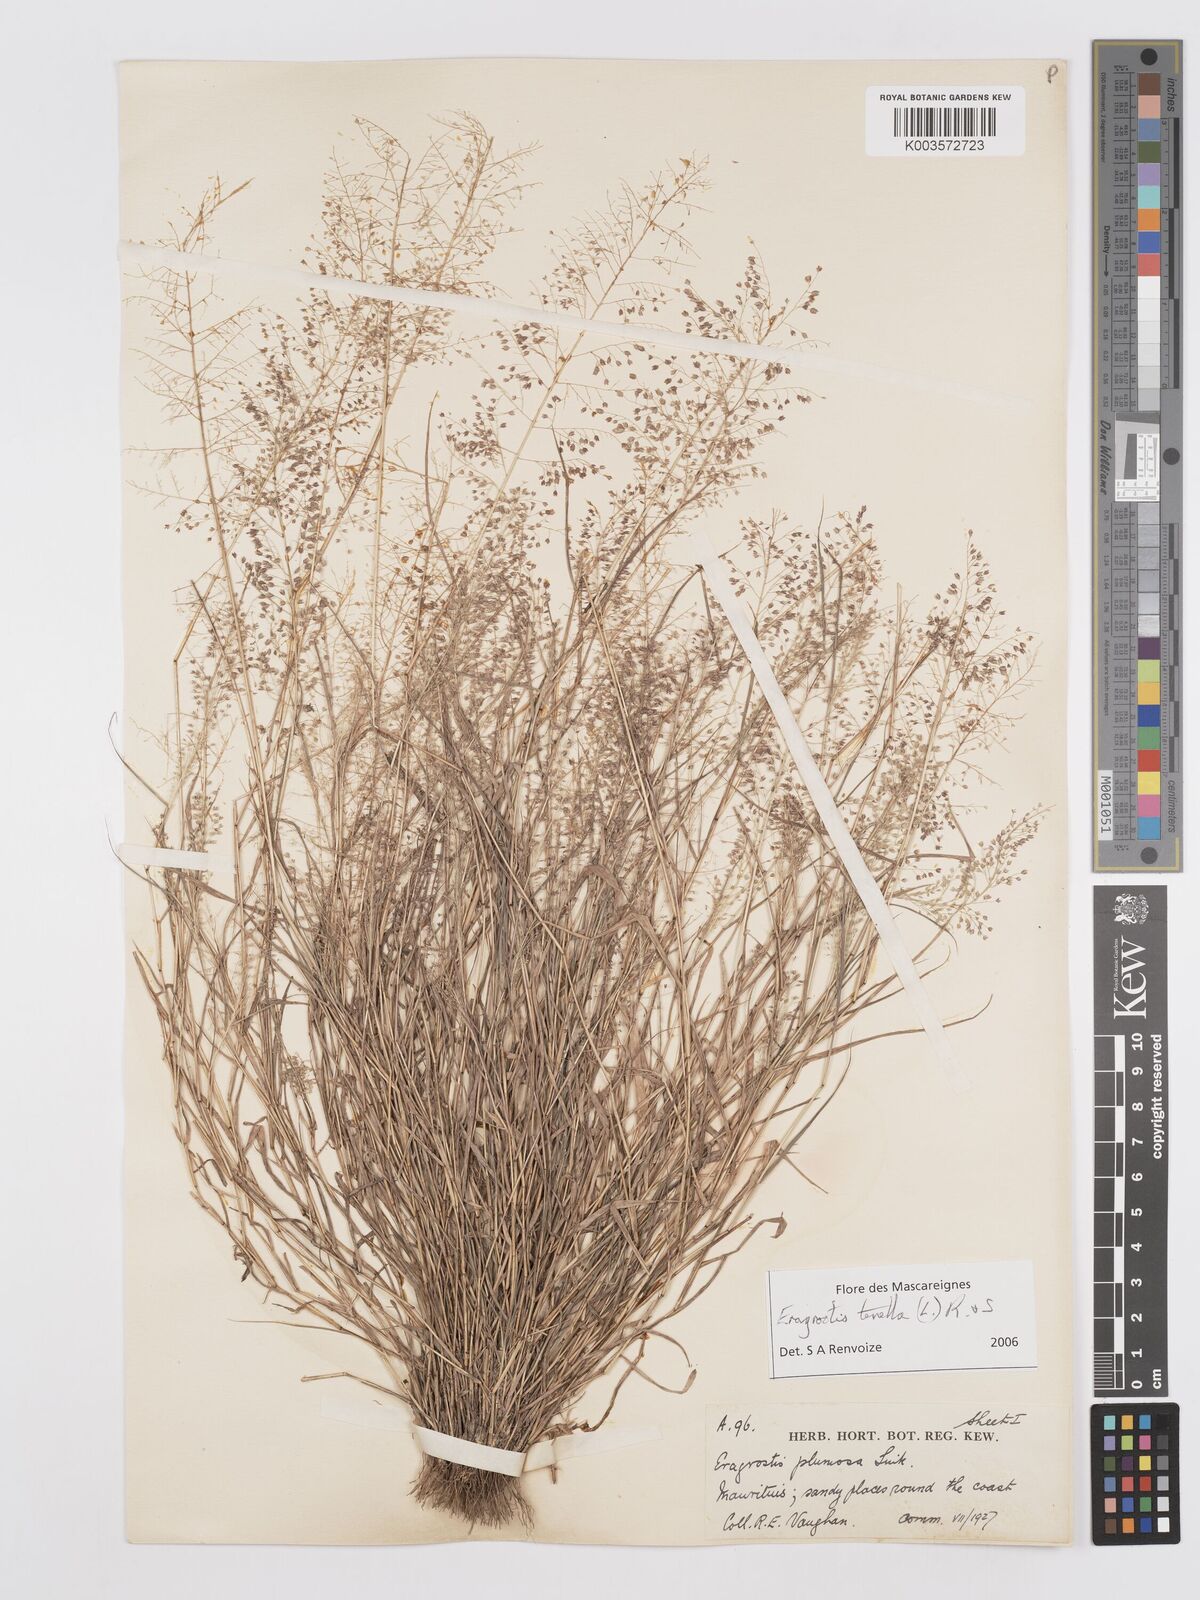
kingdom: Plantae
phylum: Tracheophyta
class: Liliopsida
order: Poales
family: Poaceae
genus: Eragrostis
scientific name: Eragrostis tenella
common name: Japanese lovegrass
